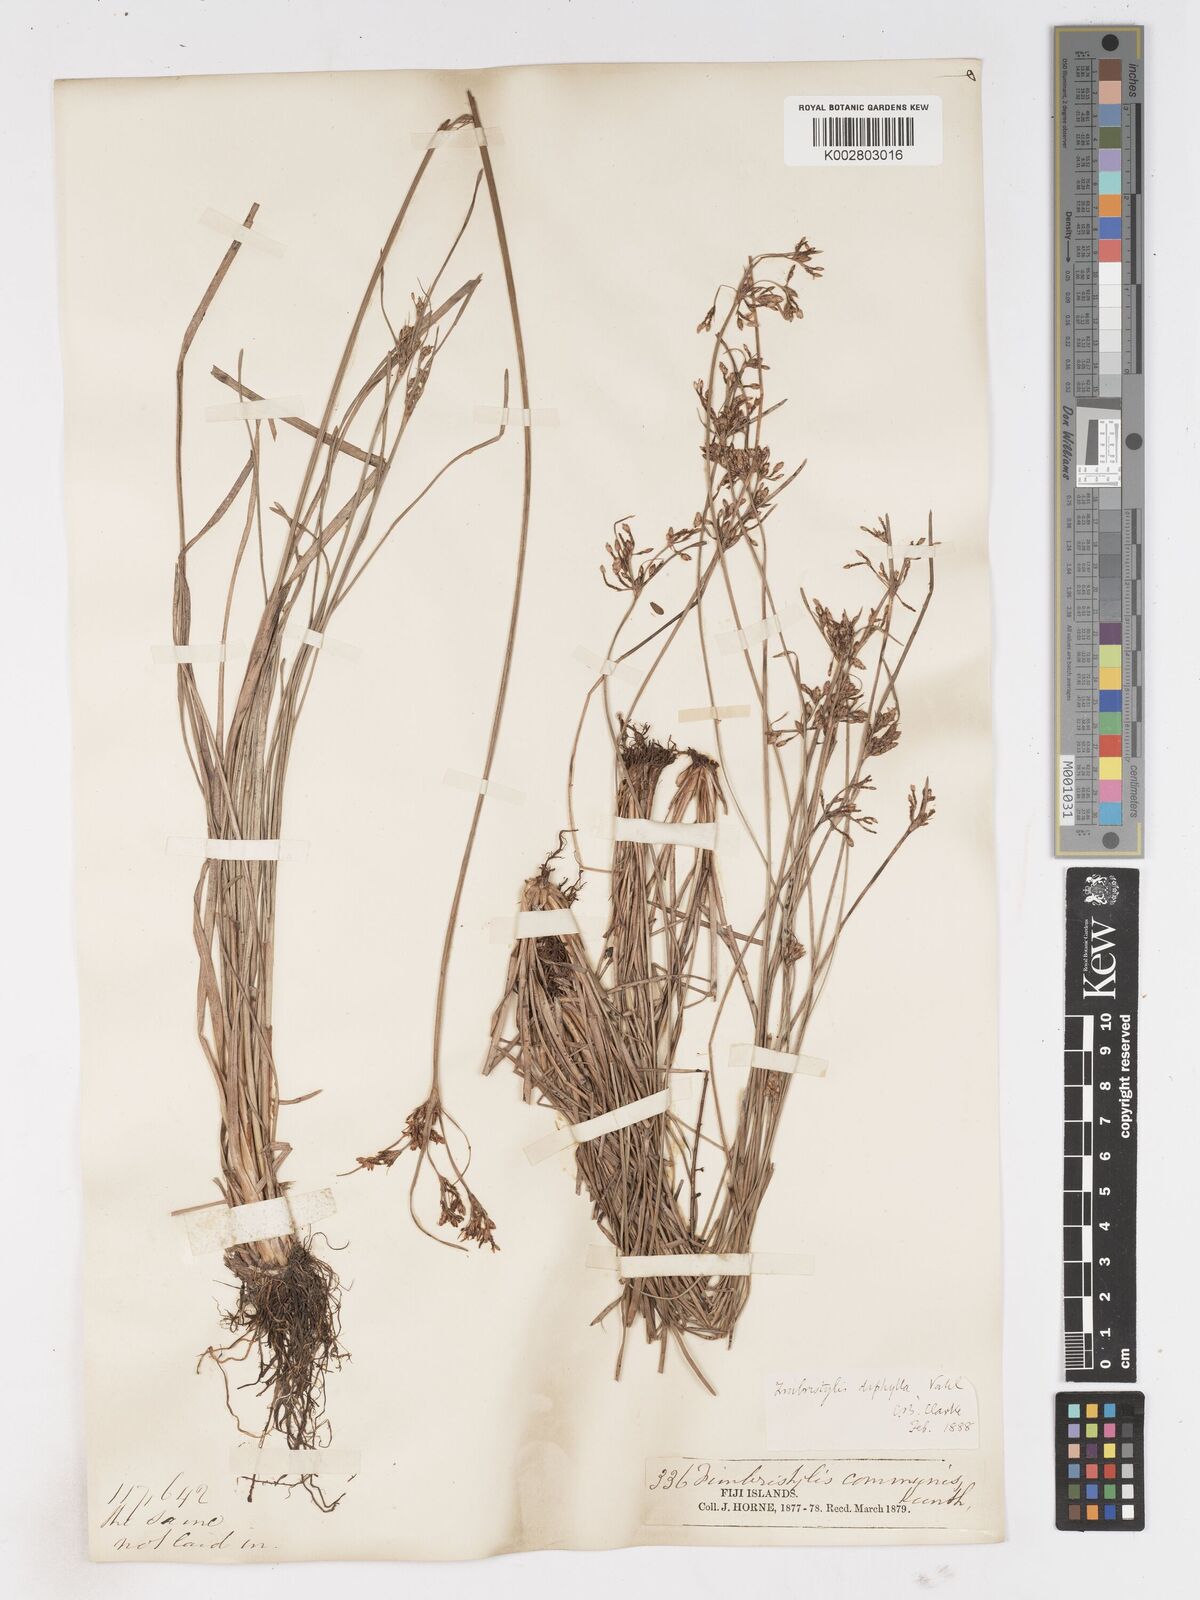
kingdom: Plantae
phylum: Tracheophyta
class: Liliopsida
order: Poales
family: Cyperaceae
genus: Fimbristylis
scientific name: Fimbristylis dichotoma
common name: Forked fimbry
